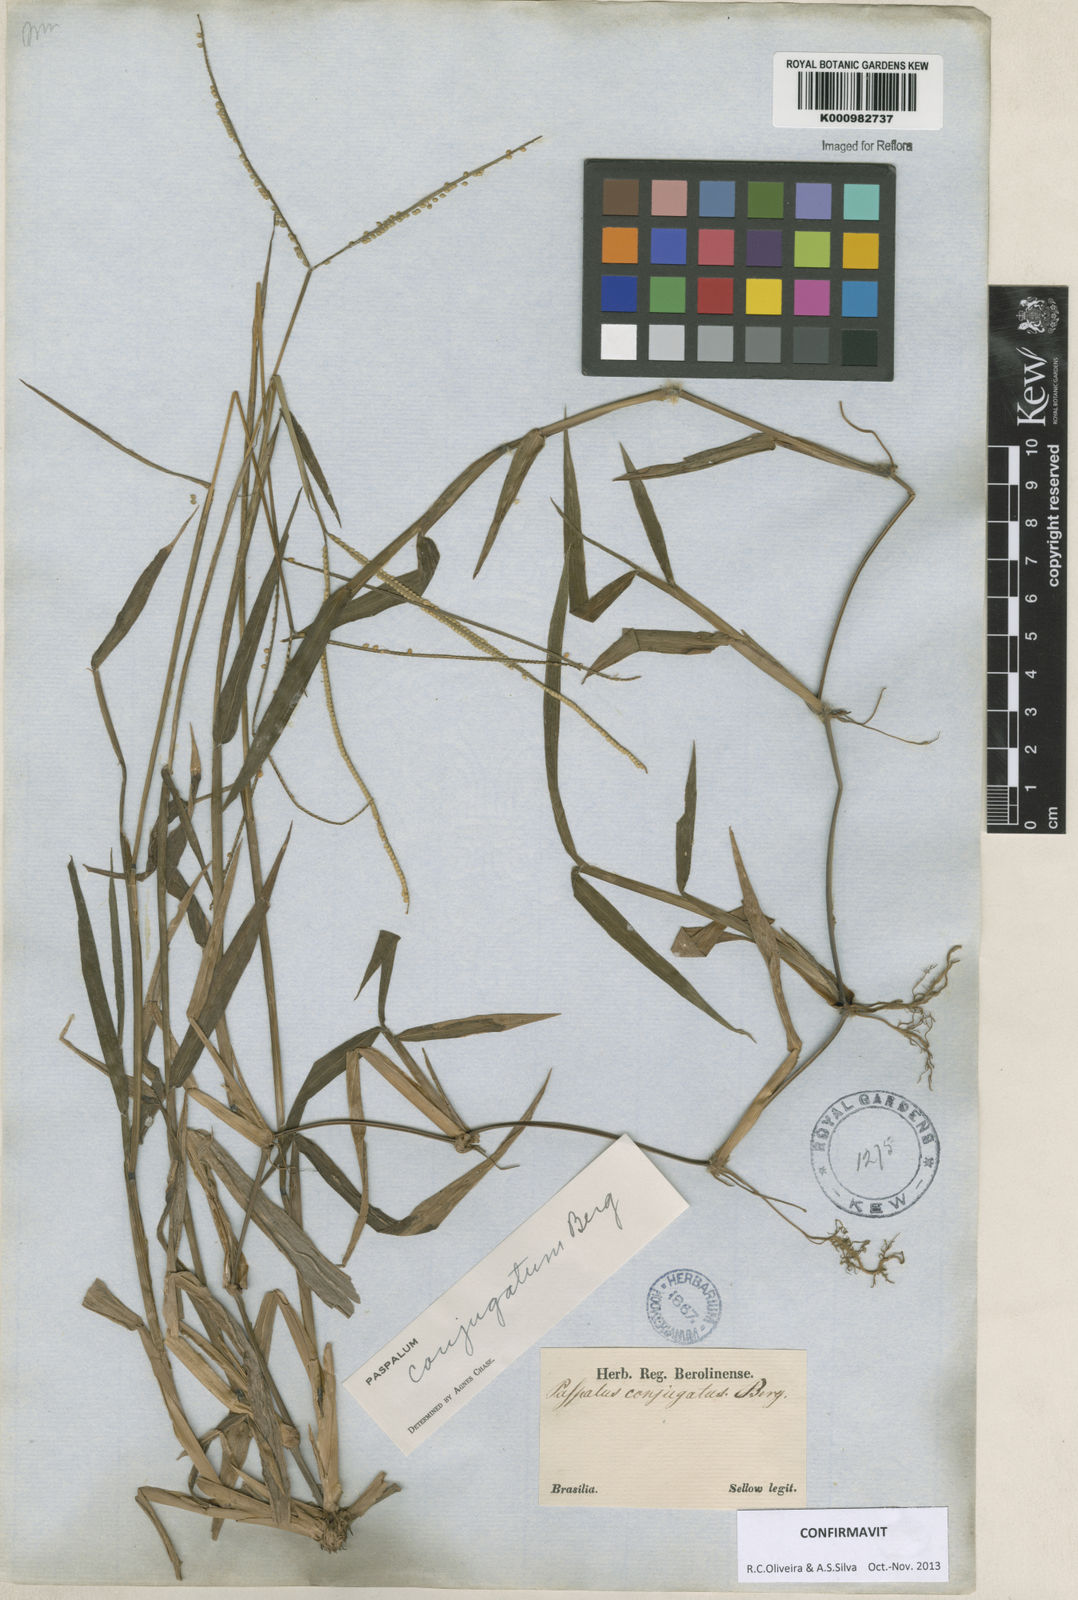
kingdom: Plantae
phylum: Tracheophyta
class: Liliopsida
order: Poales
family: Poaceae
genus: Paspalum
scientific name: Paspalum conjugatum
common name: Hilograss
